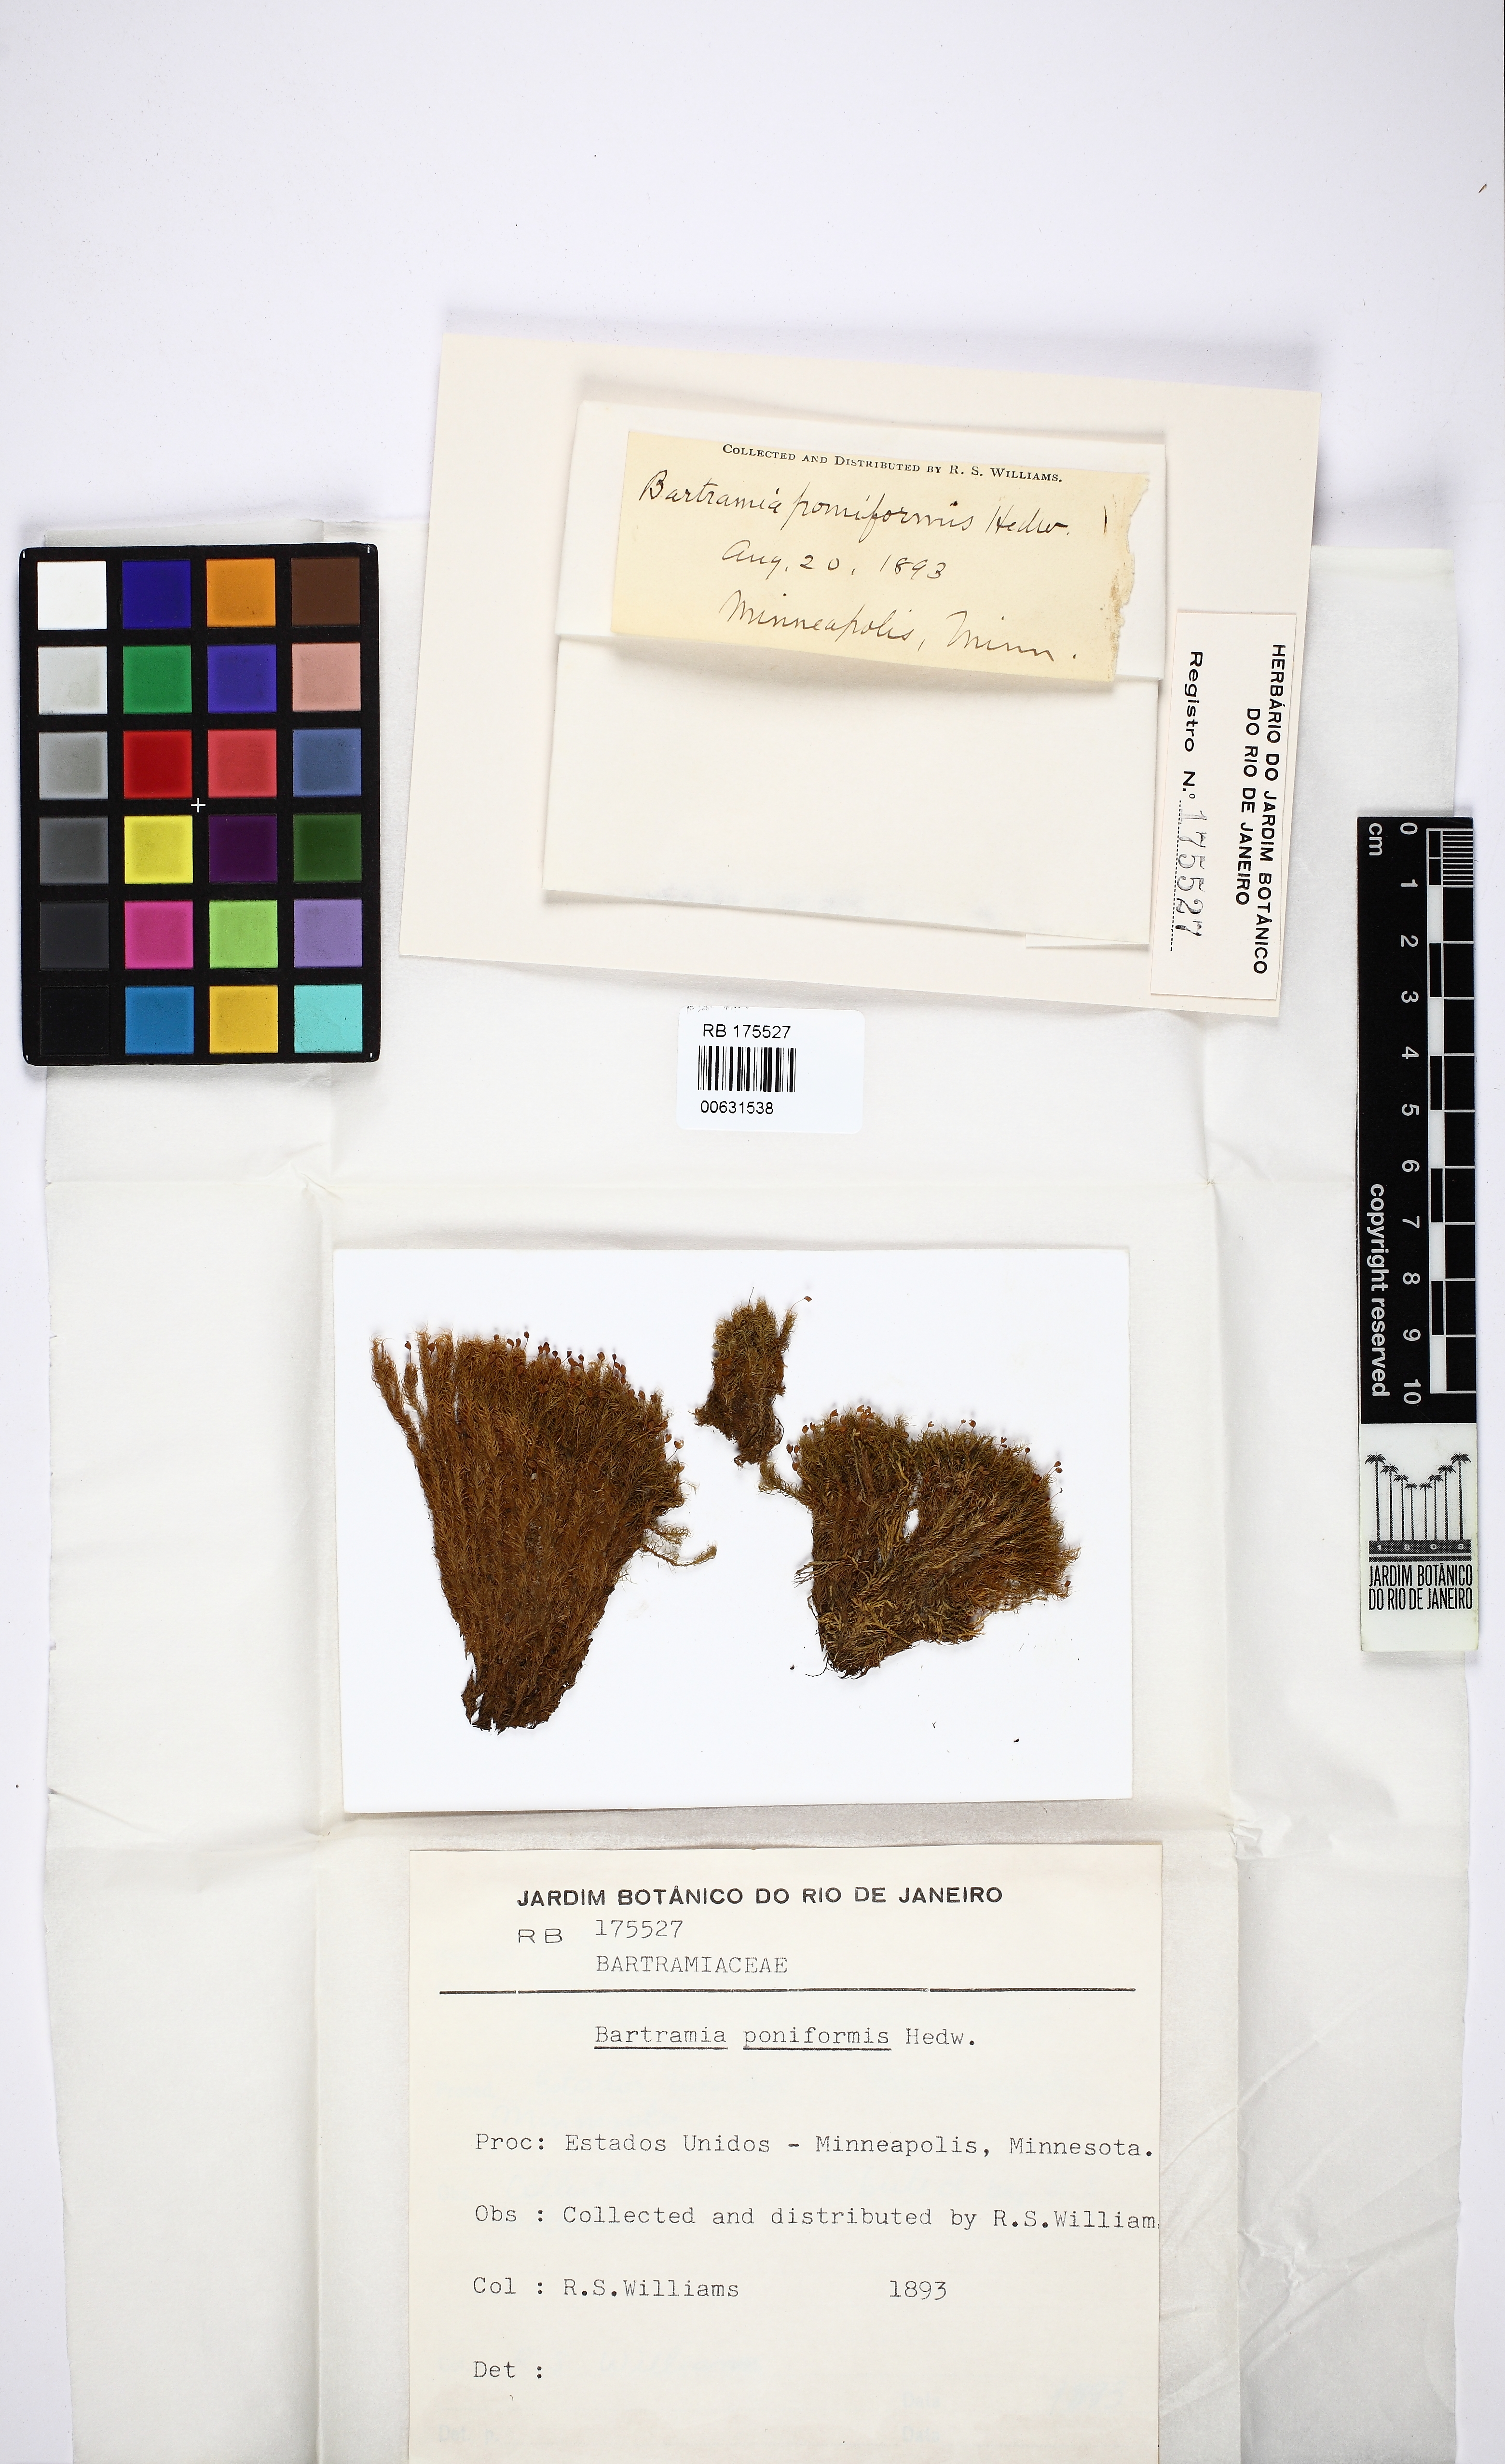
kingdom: Plantae
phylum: Bryophyta
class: Bryopsida
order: Bartramiales
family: Bartramiaceae
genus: Bartramia
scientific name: Bartramia pomiformis
